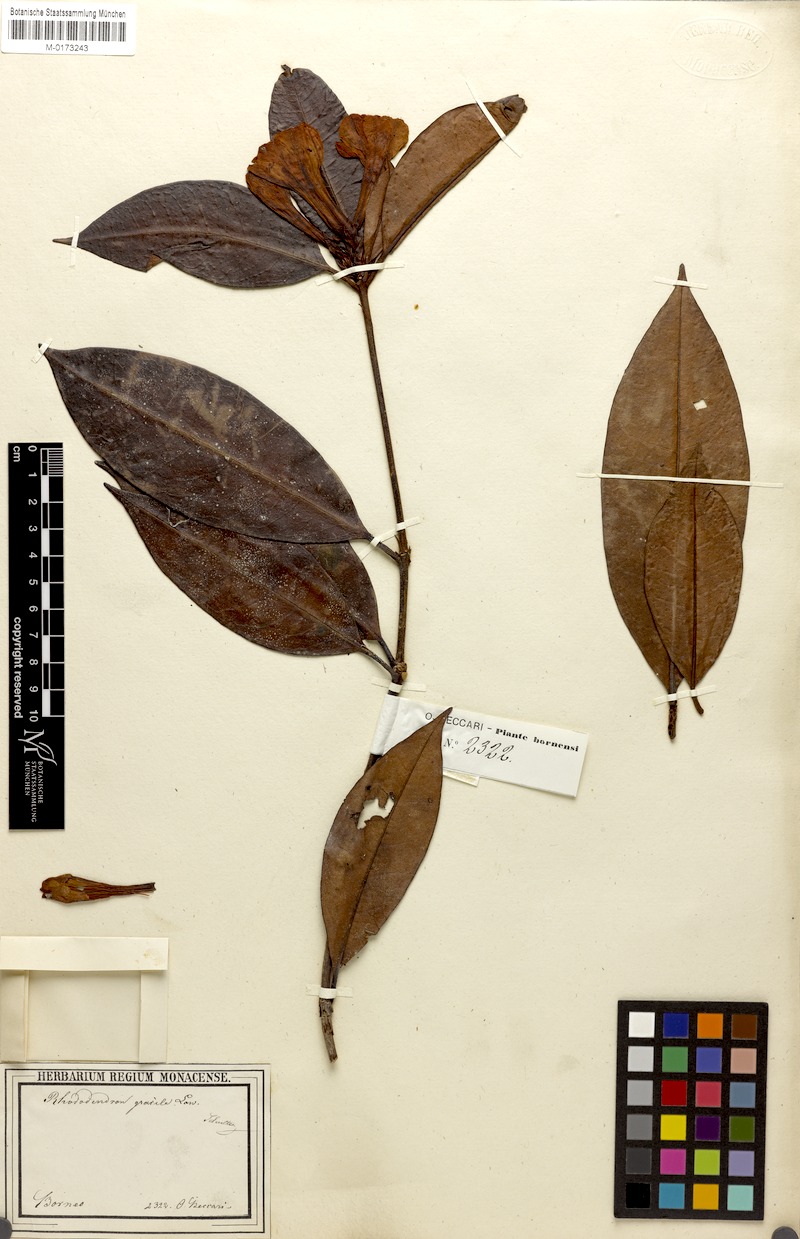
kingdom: Plantae
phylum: Tracheophyta
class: Magnoliopsida
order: Ericales
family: Ericaceae
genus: Rhododendron
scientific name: Rhododendron javanicum
